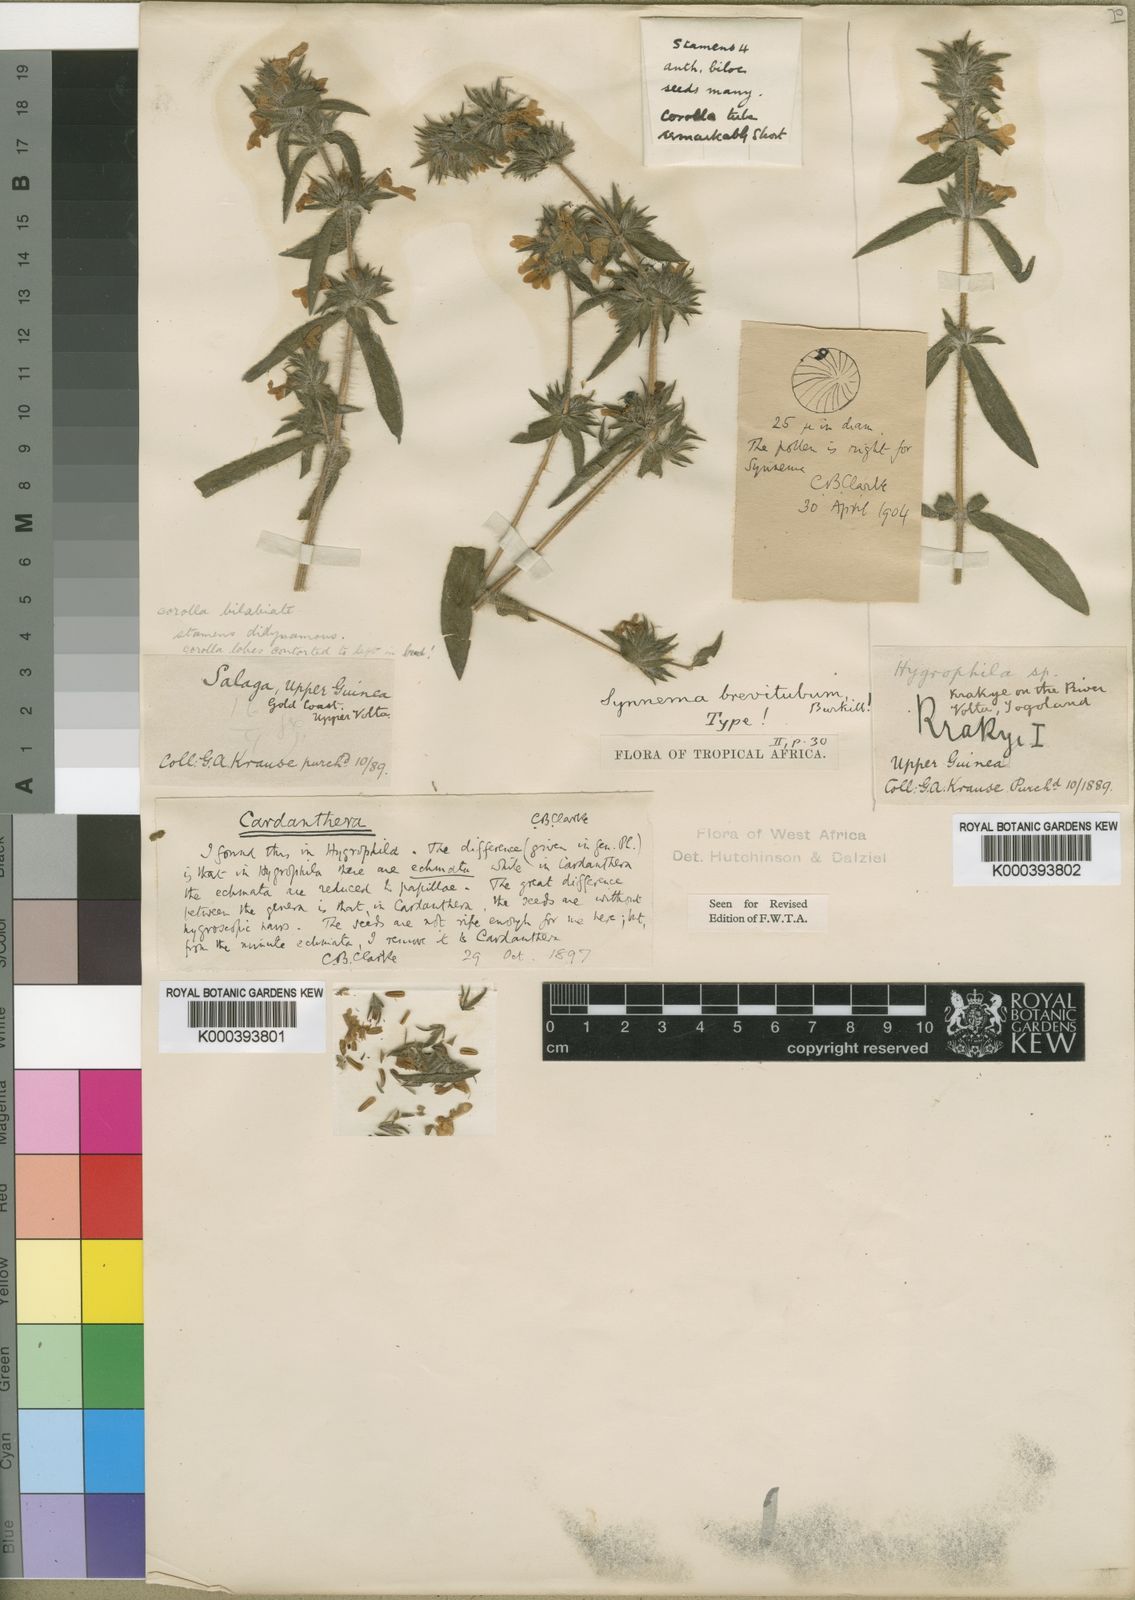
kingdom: Plantae
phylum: Tracheophyta
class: Magnoliopsida
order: Lamiales
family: Acanthaceae
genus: Hygrophila
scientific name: Hygrophila brevituba
